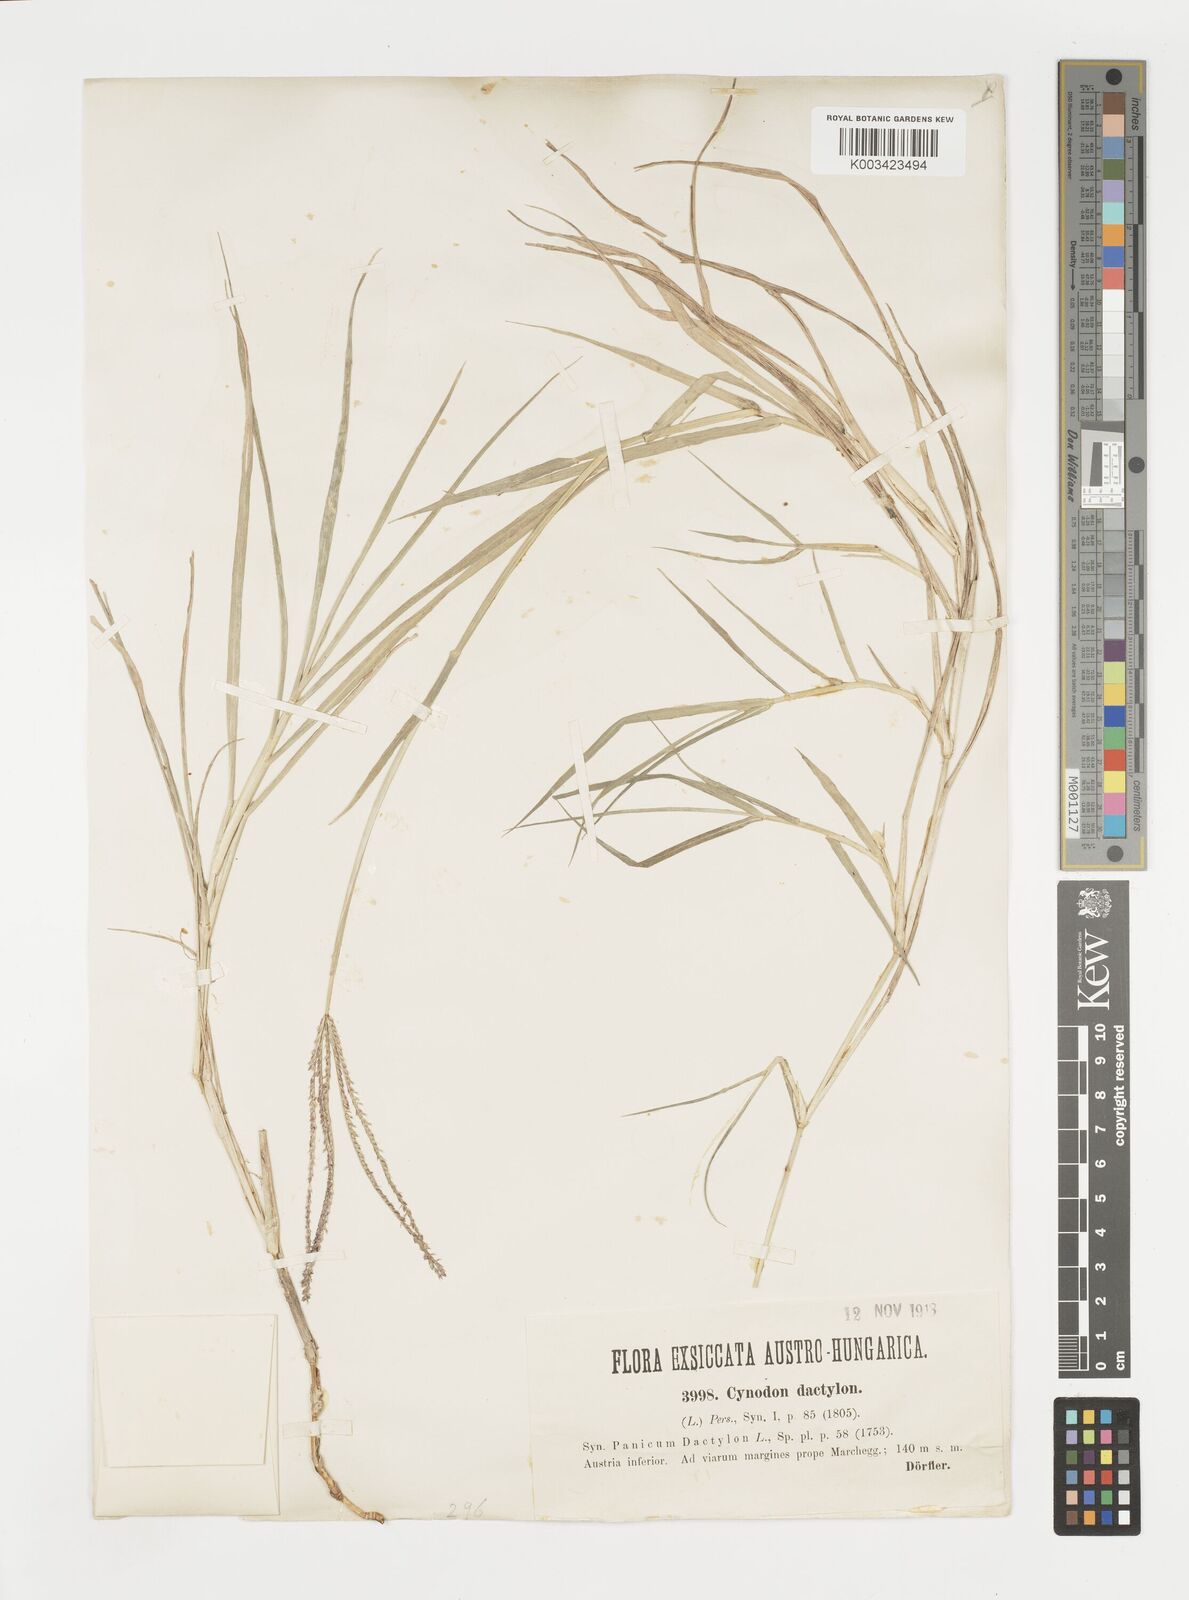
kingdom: Plantae
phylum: Tracheophyta
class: Liliopsida
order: Poales
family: Poaceae
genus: Cynodon
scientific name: Cynodon dactylon
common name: Bermuda grass
